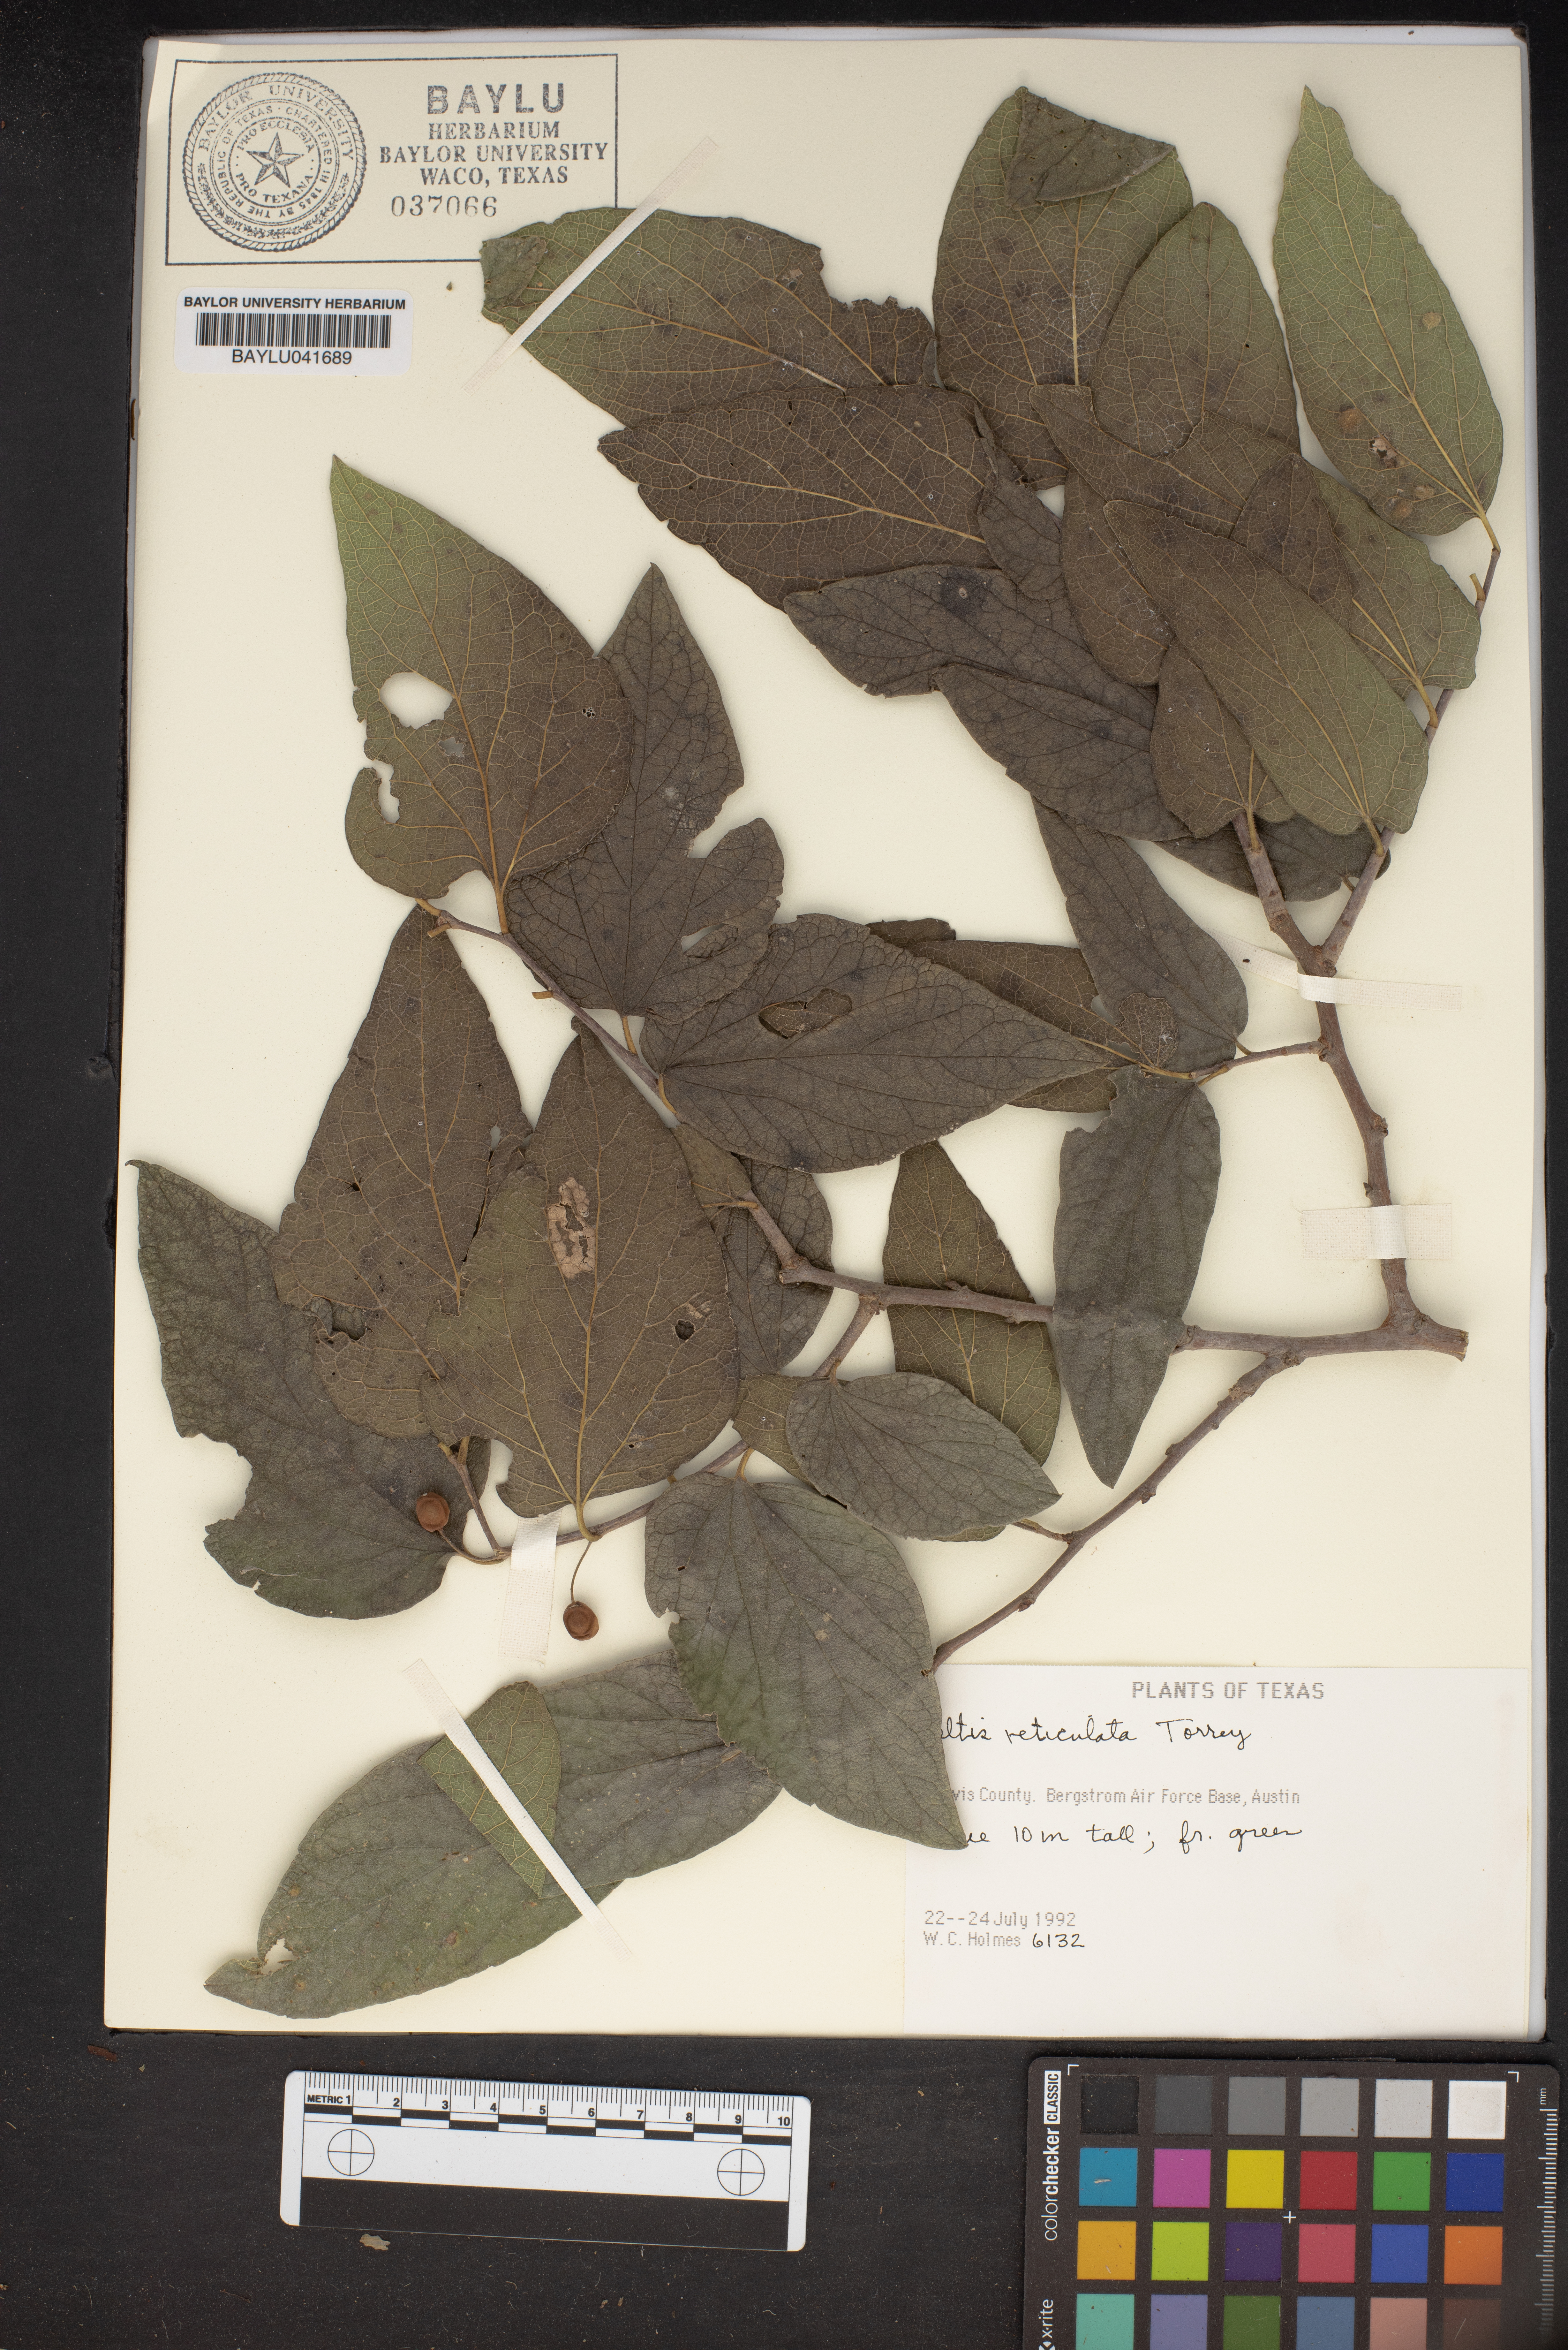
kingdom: Animalia
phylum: Mollusca
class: Gastropoda
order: Cycloneritida
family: Helicinidae
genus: Pleuropoma
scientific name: Pleuropoma
